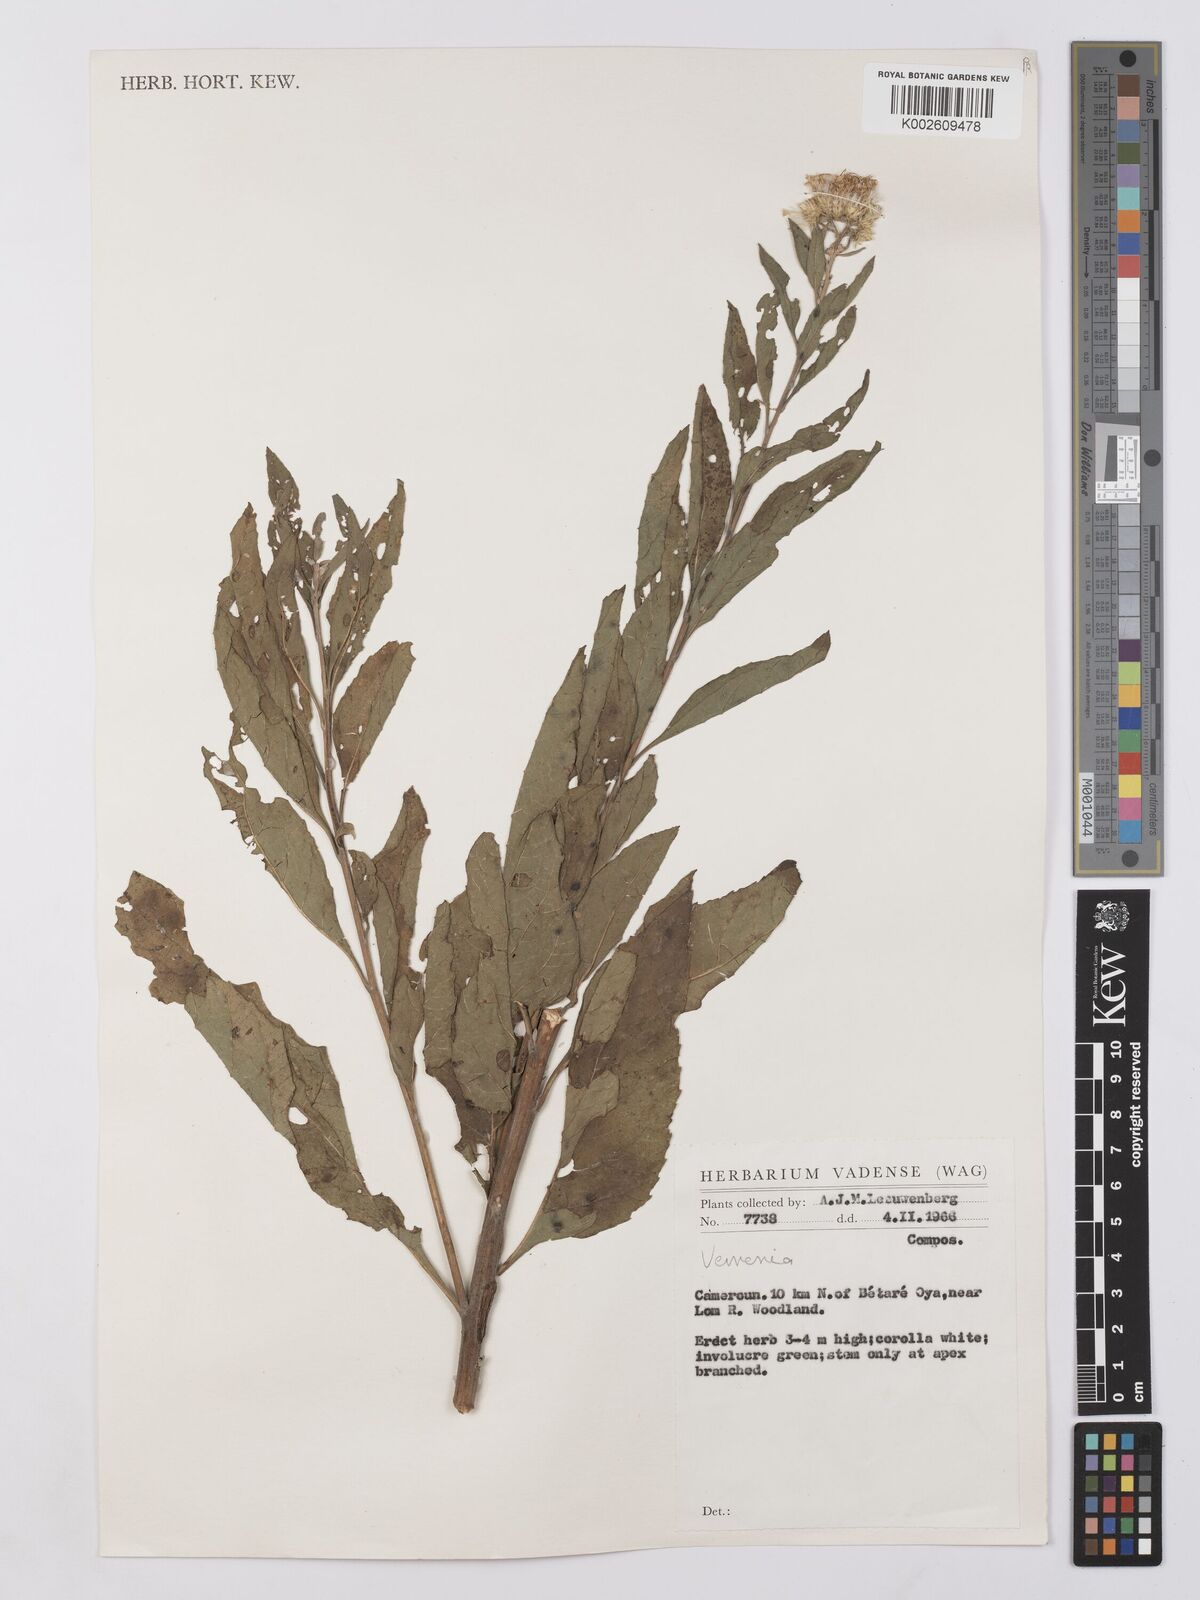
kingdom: Plantae
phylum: Tracheophyta
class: Magnoliopsida
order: Asterales
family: Asteraceae
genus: Vernonia
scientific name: Vernonia
